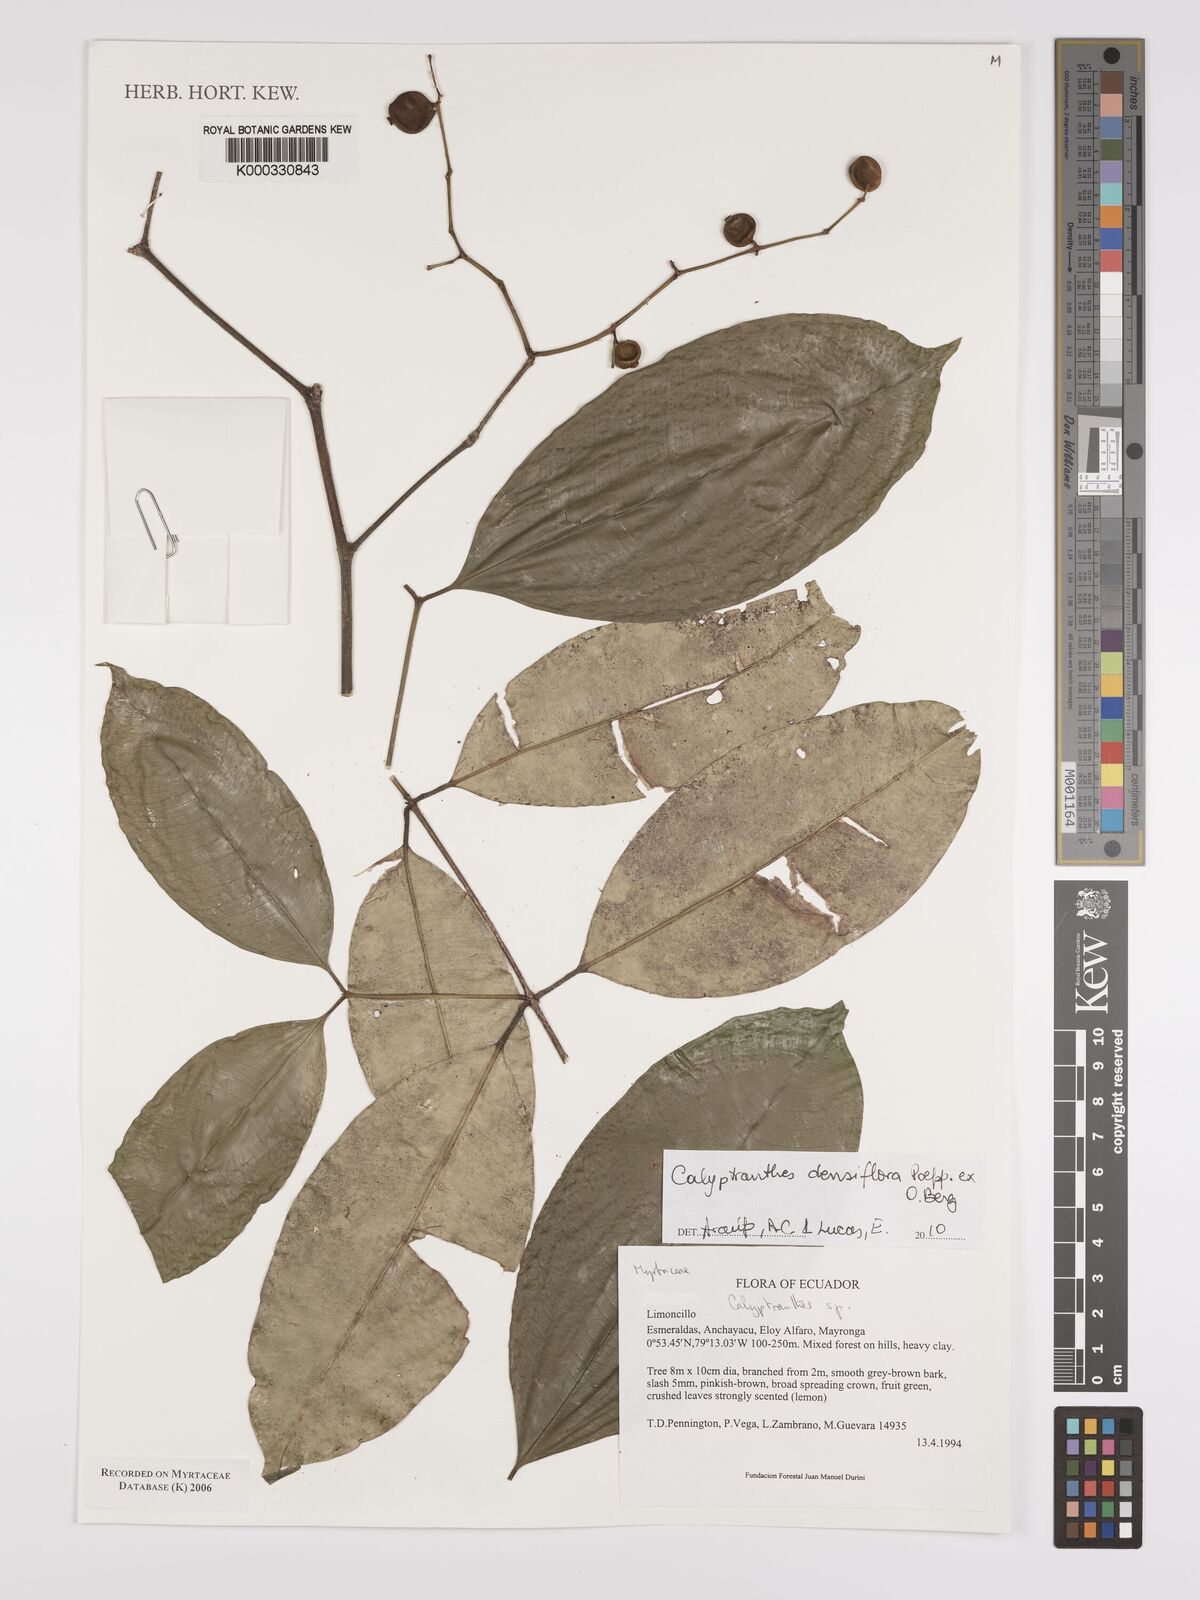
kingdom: Plantae
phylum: Tracheophyta
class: Magnoliopsida
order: Myrtales
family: Myrtaceae
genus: Calyptranthes
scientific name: Calyptranthes
